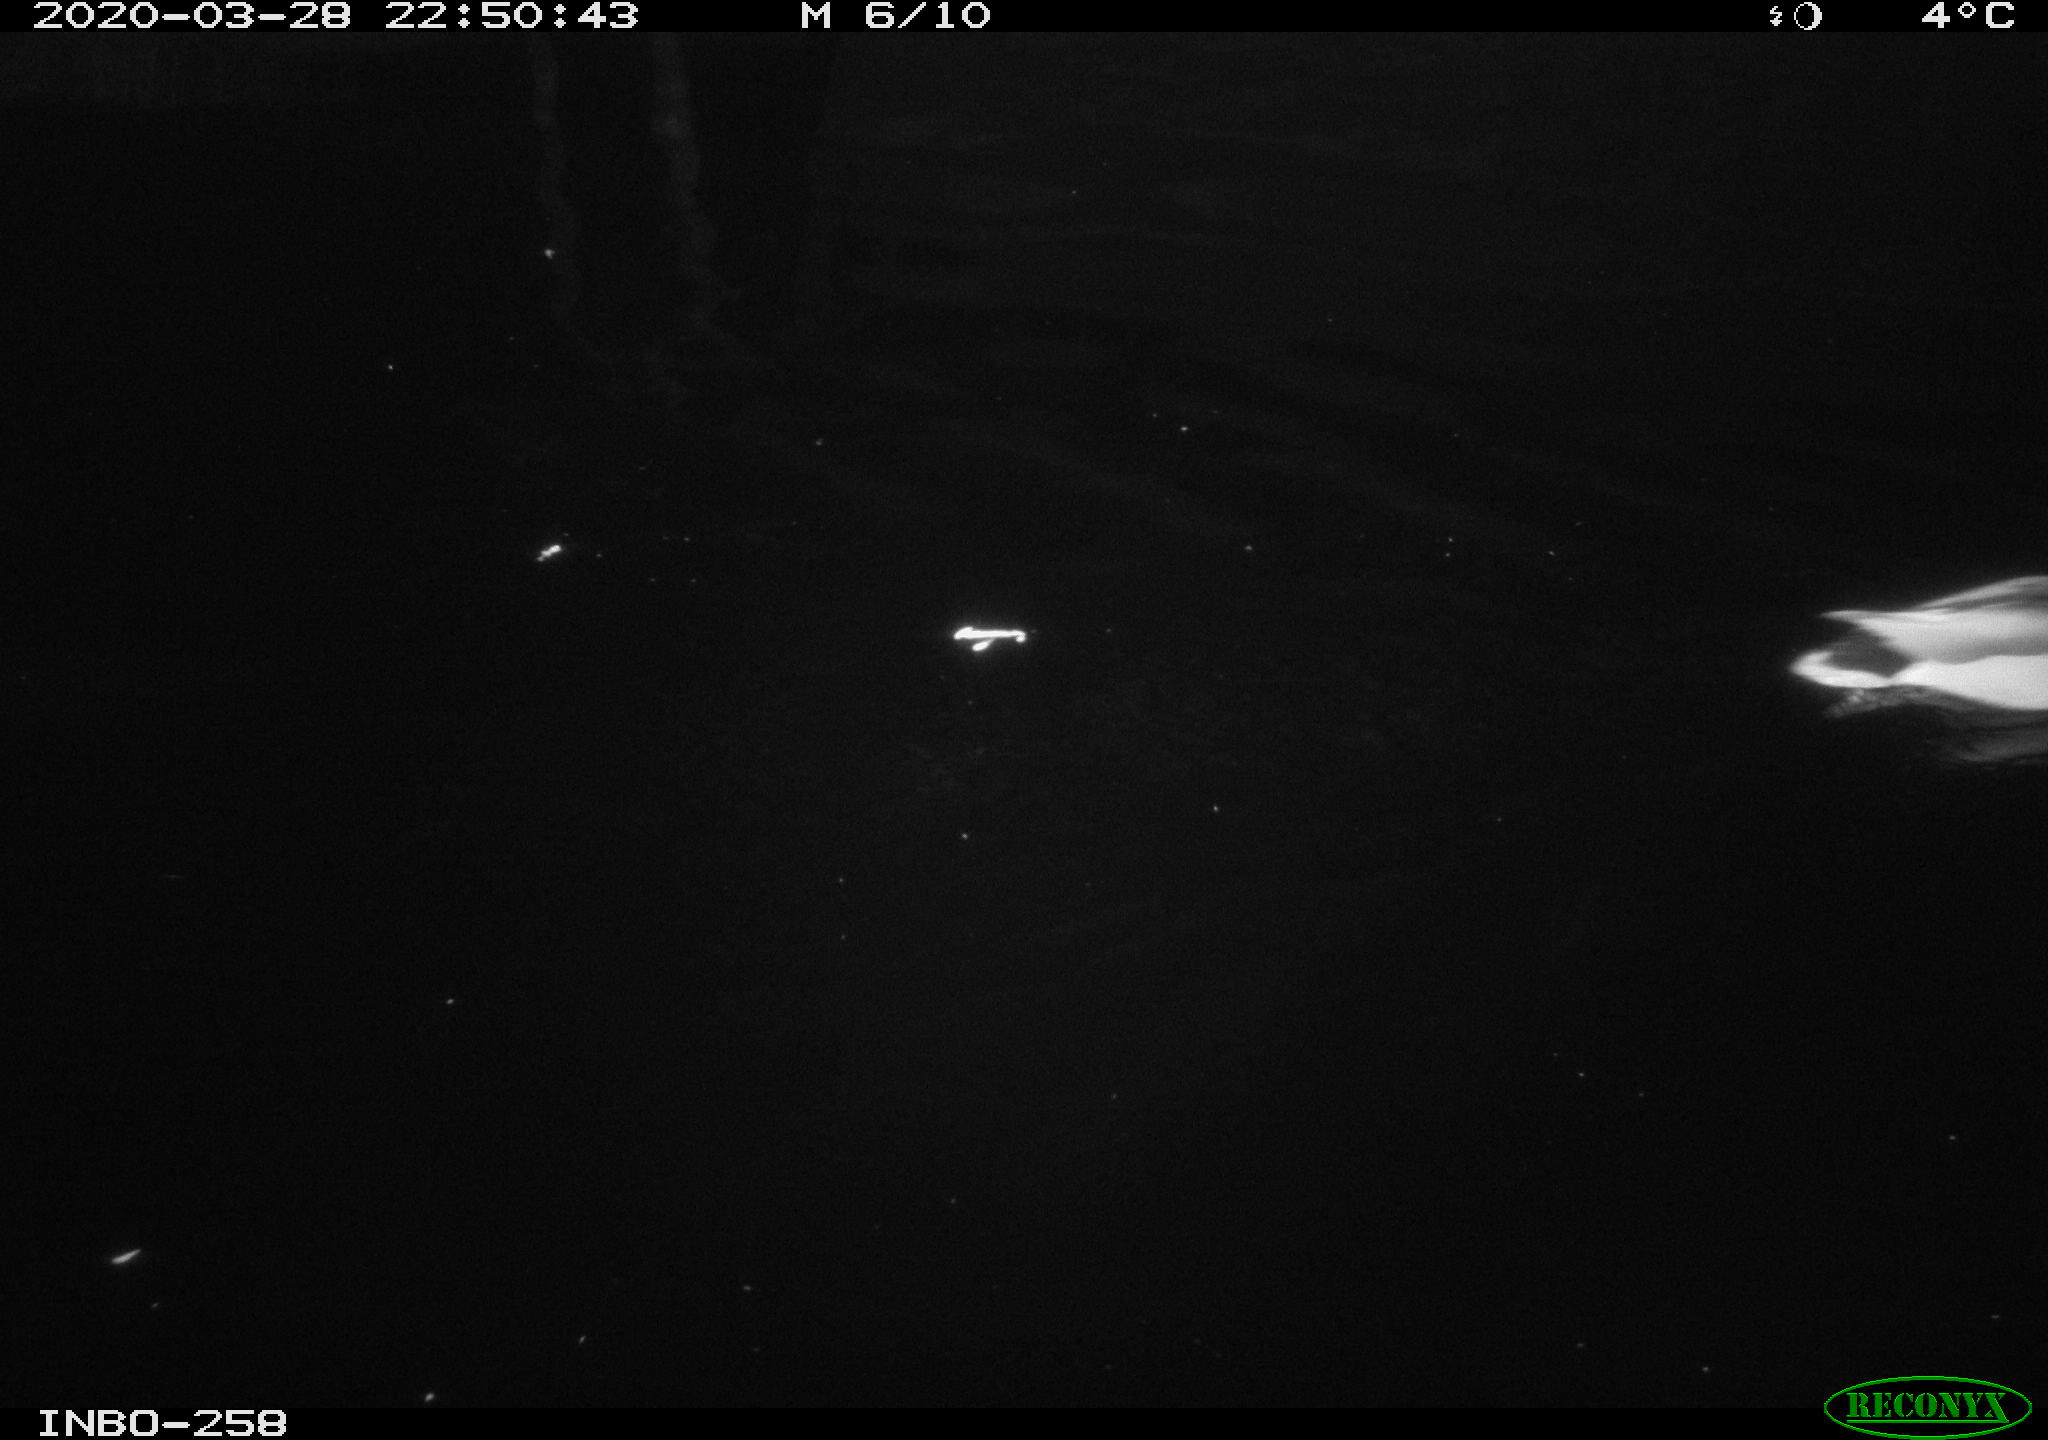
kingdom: Animalia
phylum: Chordata
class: Aves
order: Anseriformes
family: Anatidae
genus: Anas
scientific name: Anas platyrhynchos
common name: Mallard
